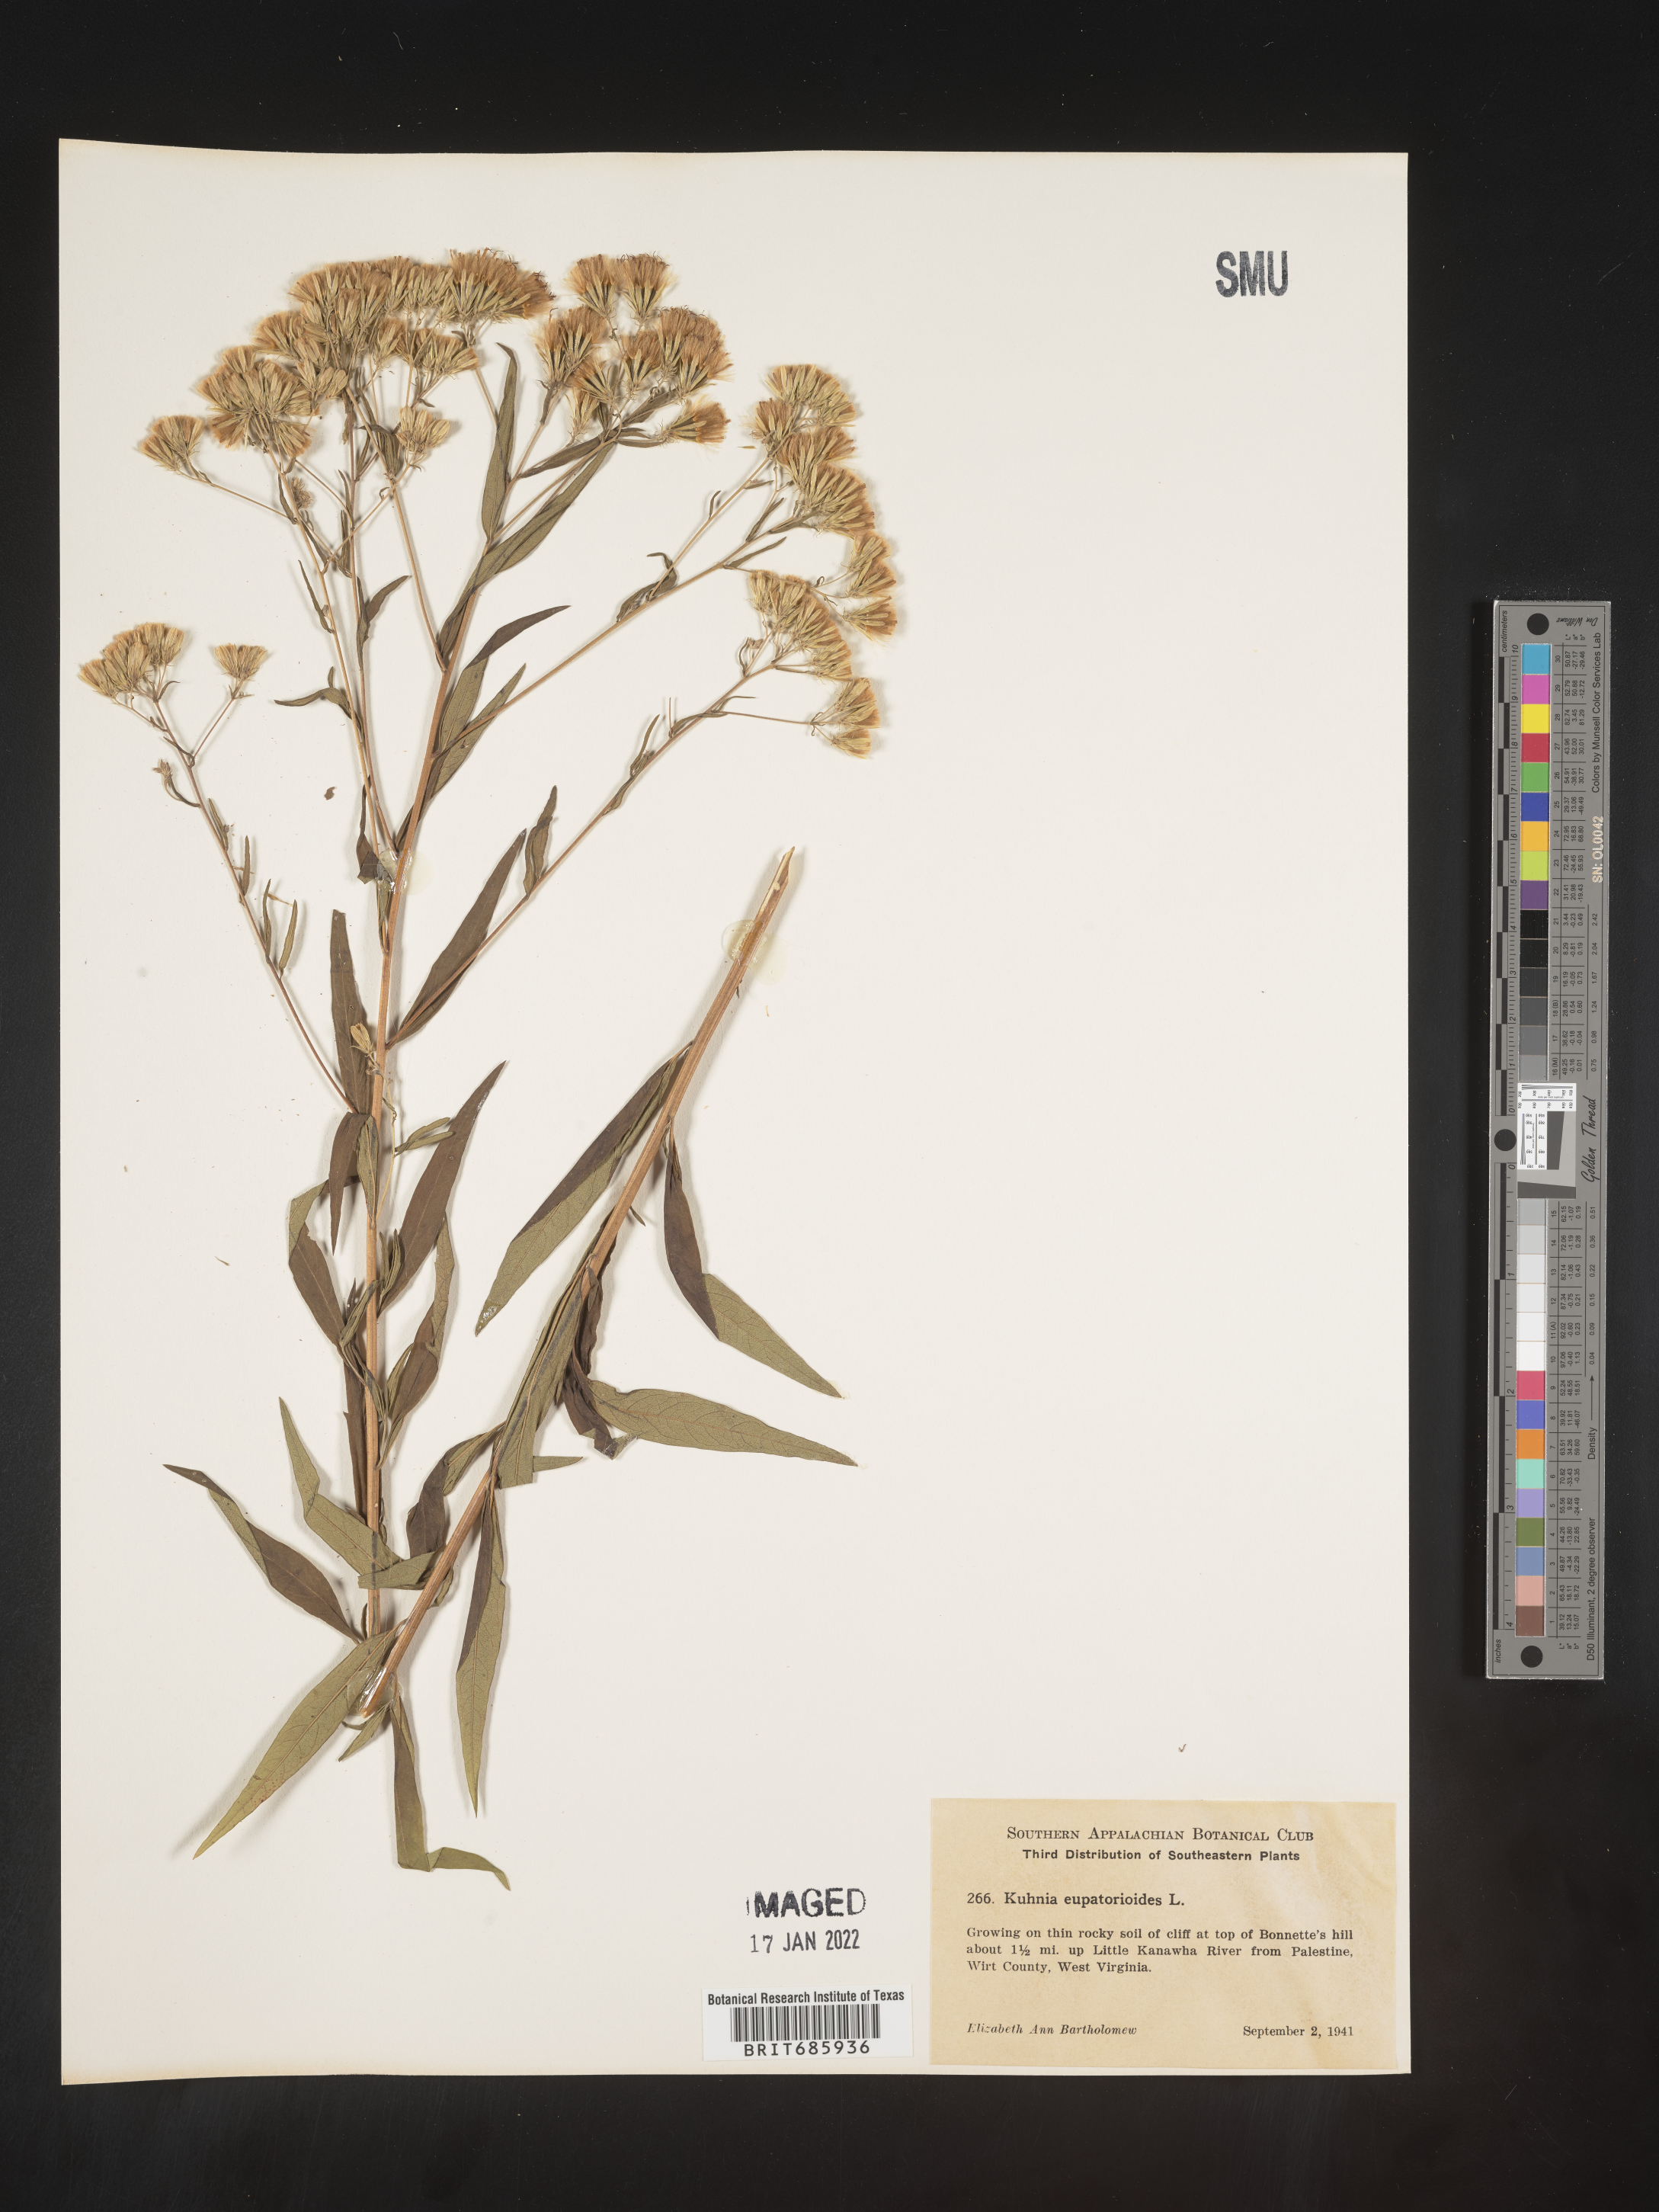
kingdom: Plantae
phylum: Tracheophyta
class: Magnoliopsida
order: Asterales
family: Asteraceae
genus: Brickellia
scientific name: Brickellia eupatorioides
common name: False boneset
